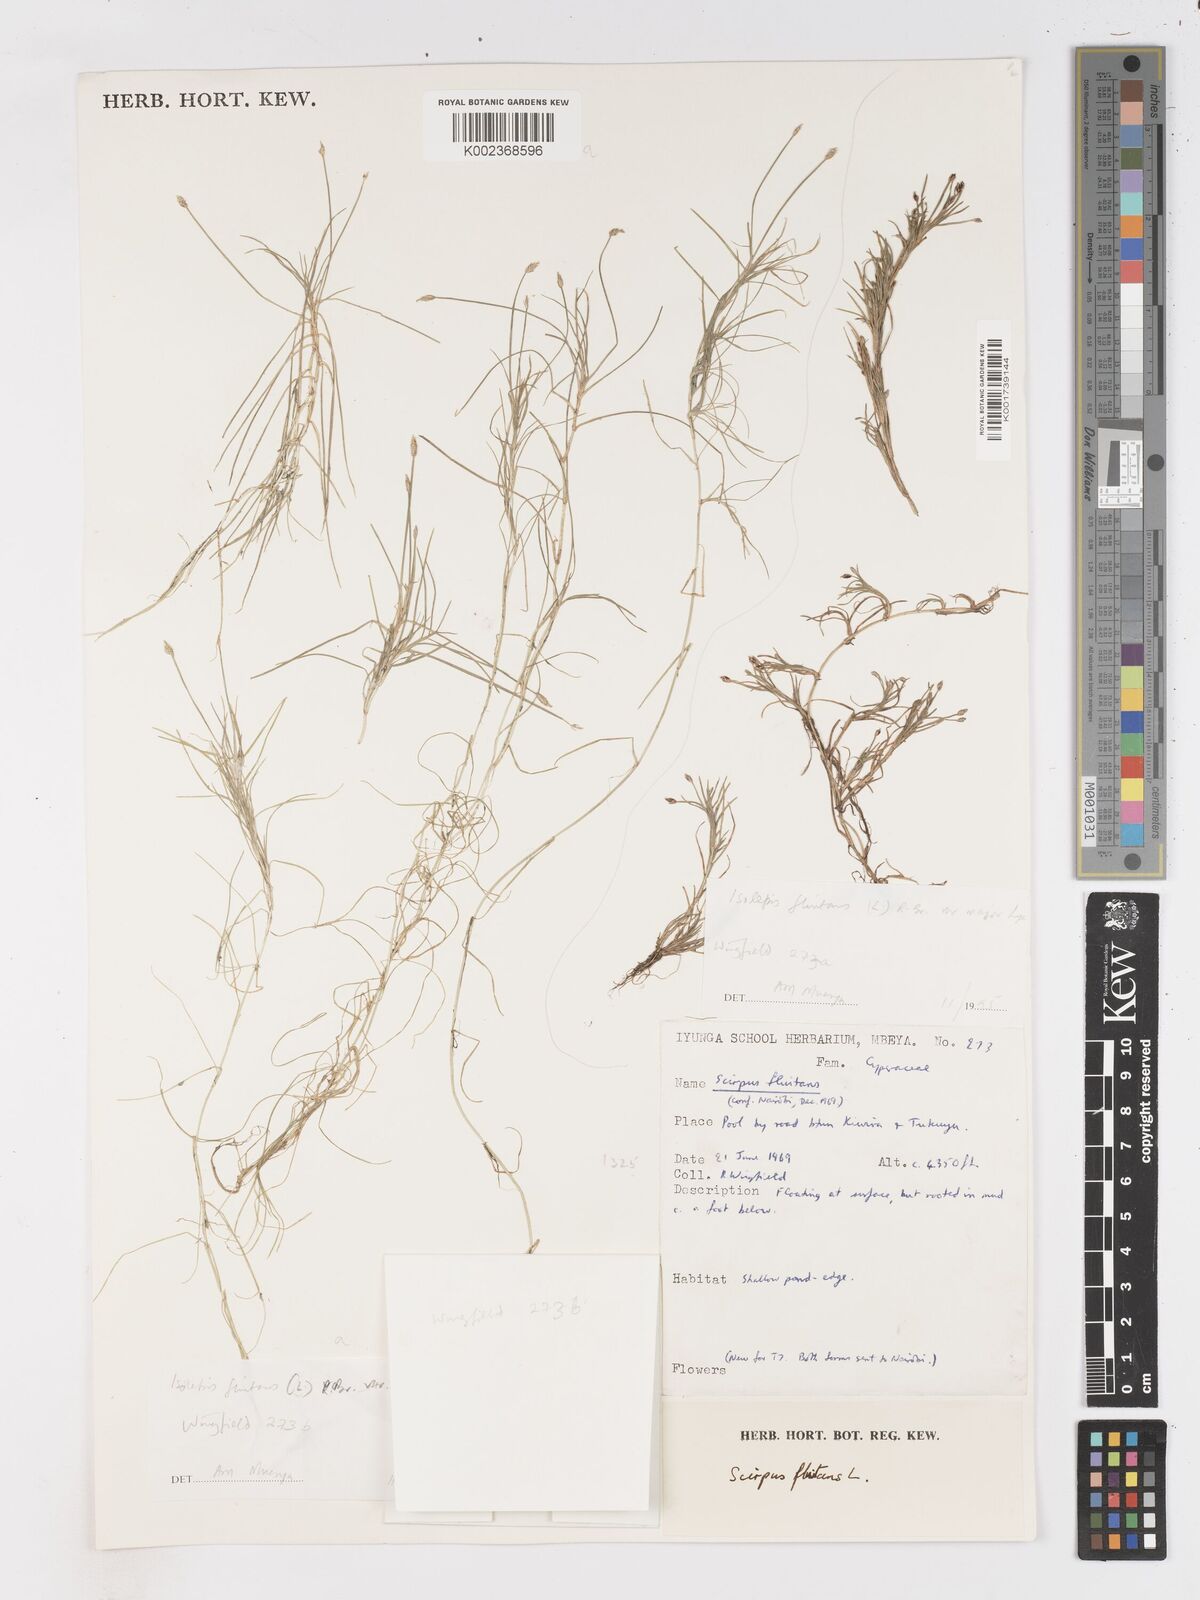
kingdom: Plantae
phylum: Tracheophyta
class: Liliopsida
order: Poales
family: Cyperaceae
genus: Isolepis
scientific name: Isolepis fluitans
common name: Floating club-rush
